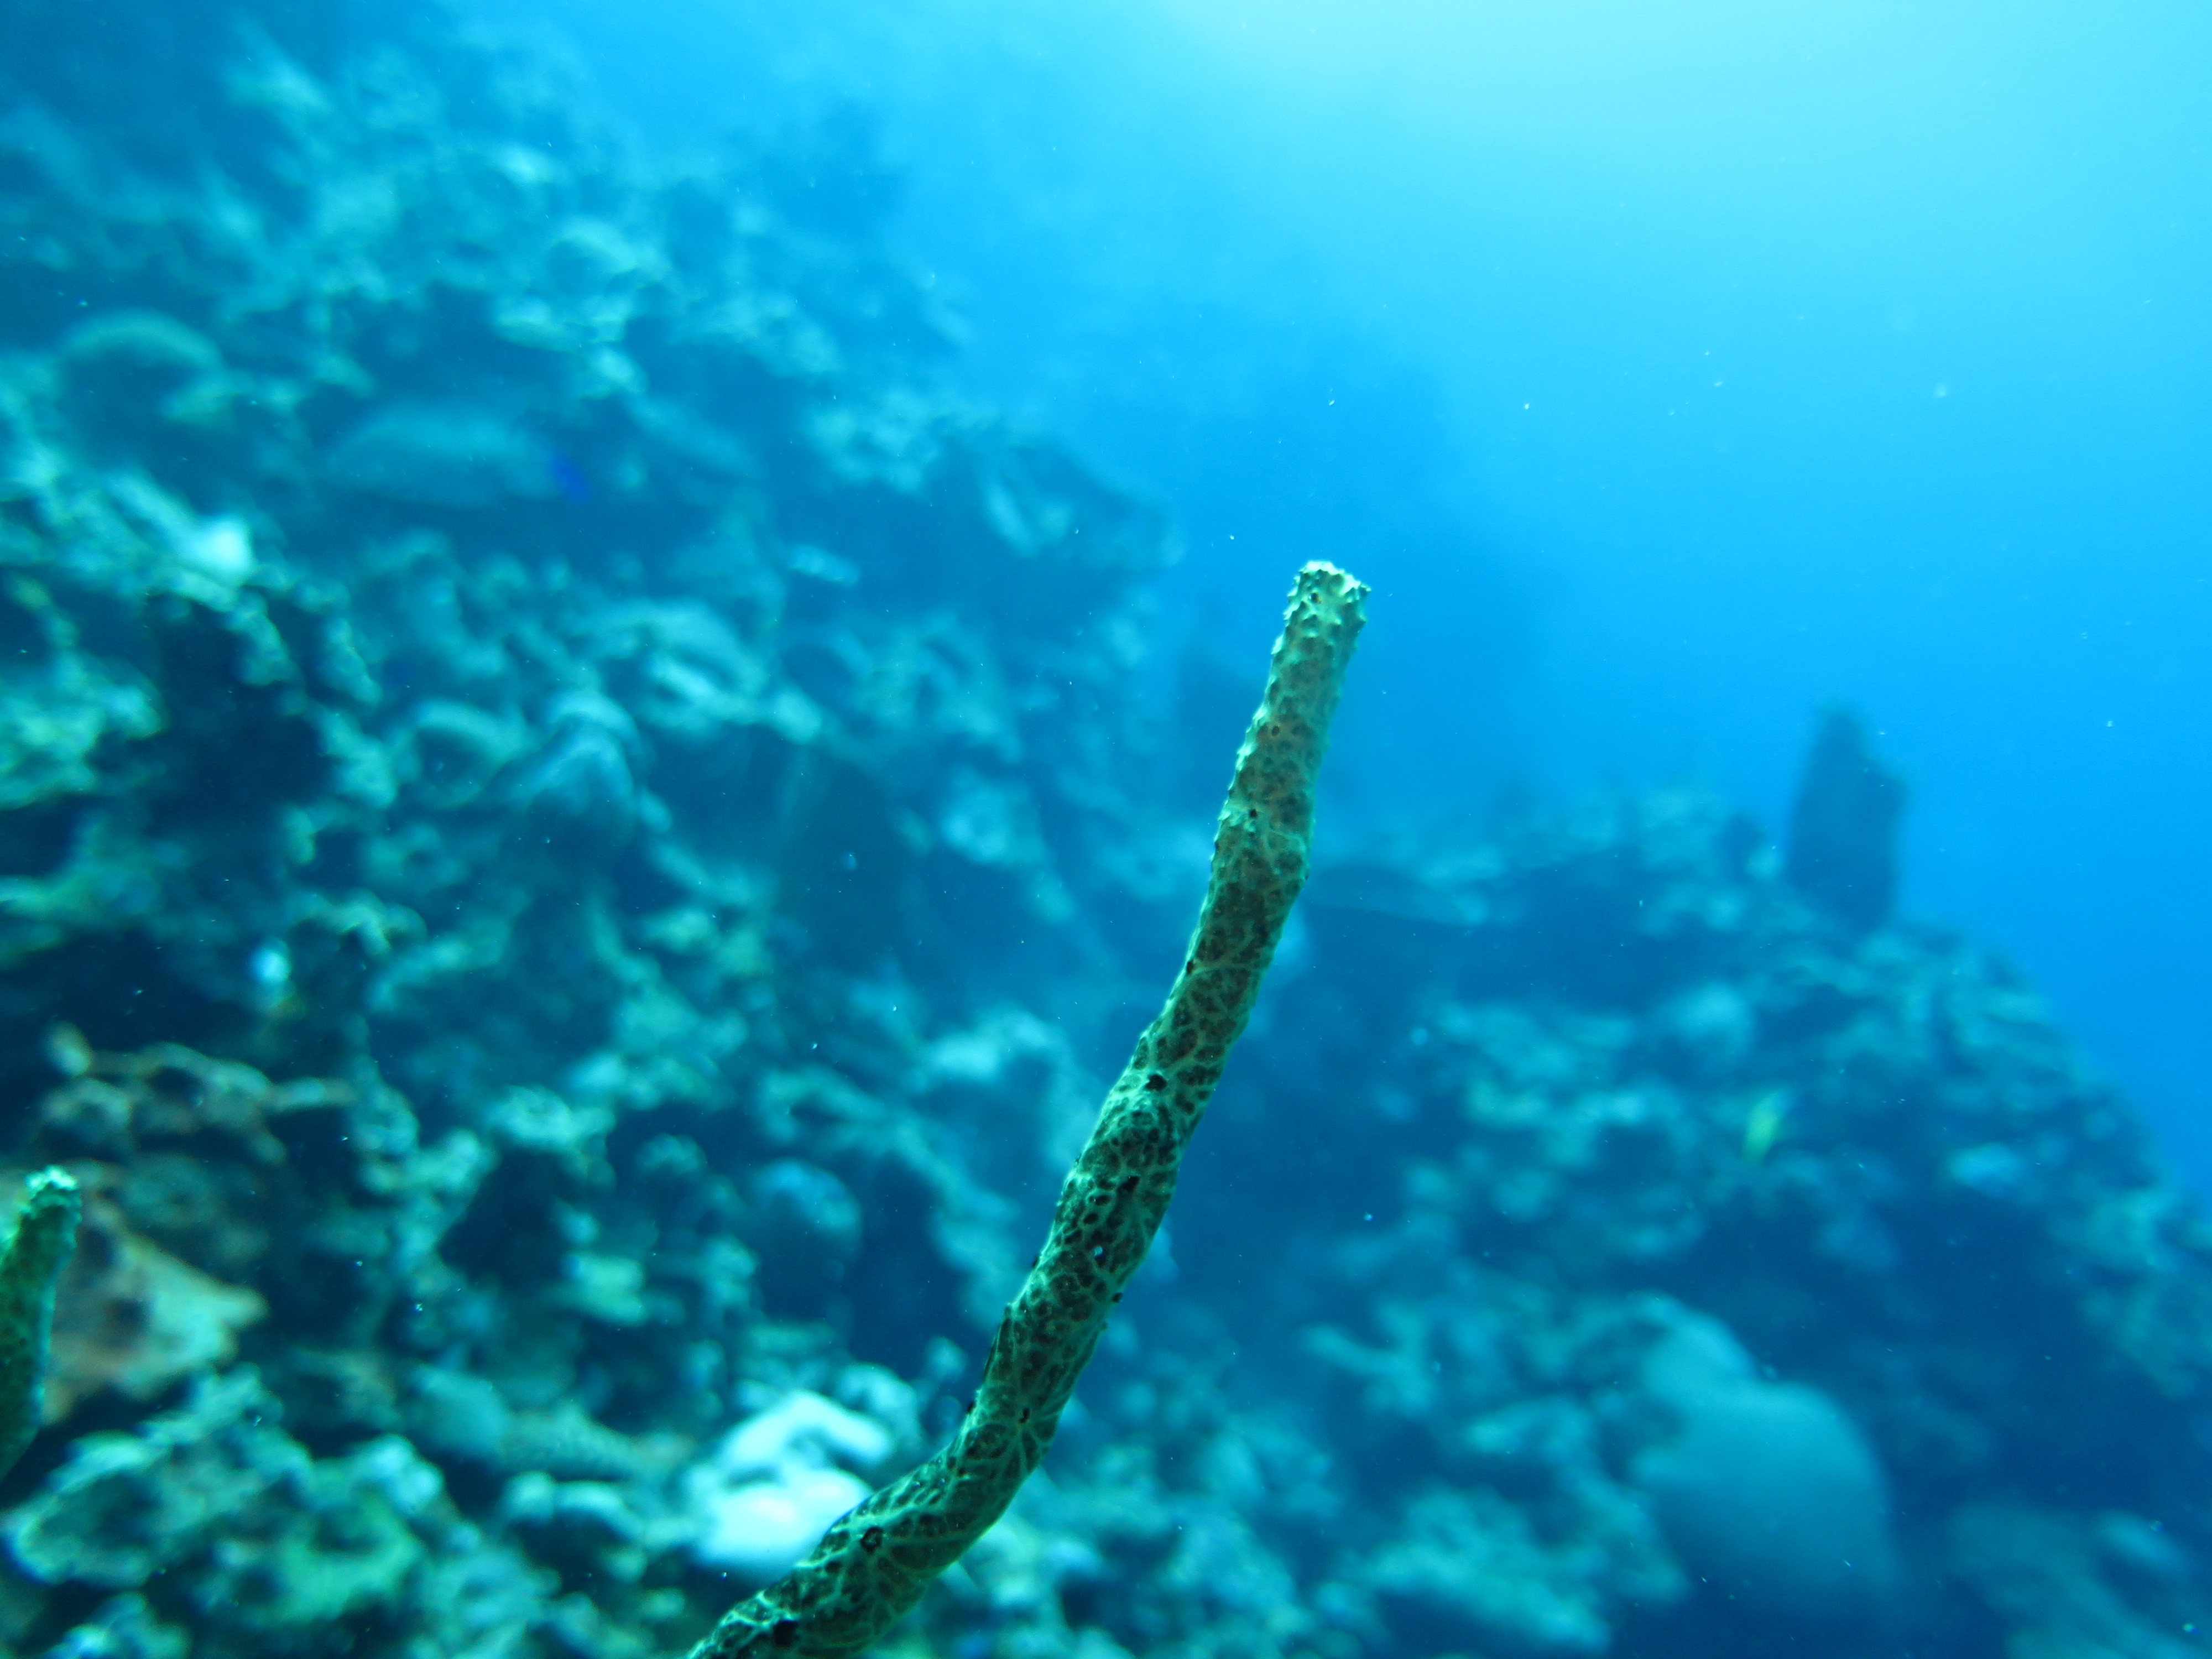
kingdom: Animalia
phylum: Porifera
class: Demospongiae
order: Poecilosclerida
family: Iotrochotidae
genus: Iotrochota
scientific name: Iotrochota birotulata
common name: Purple bleeding sponge
